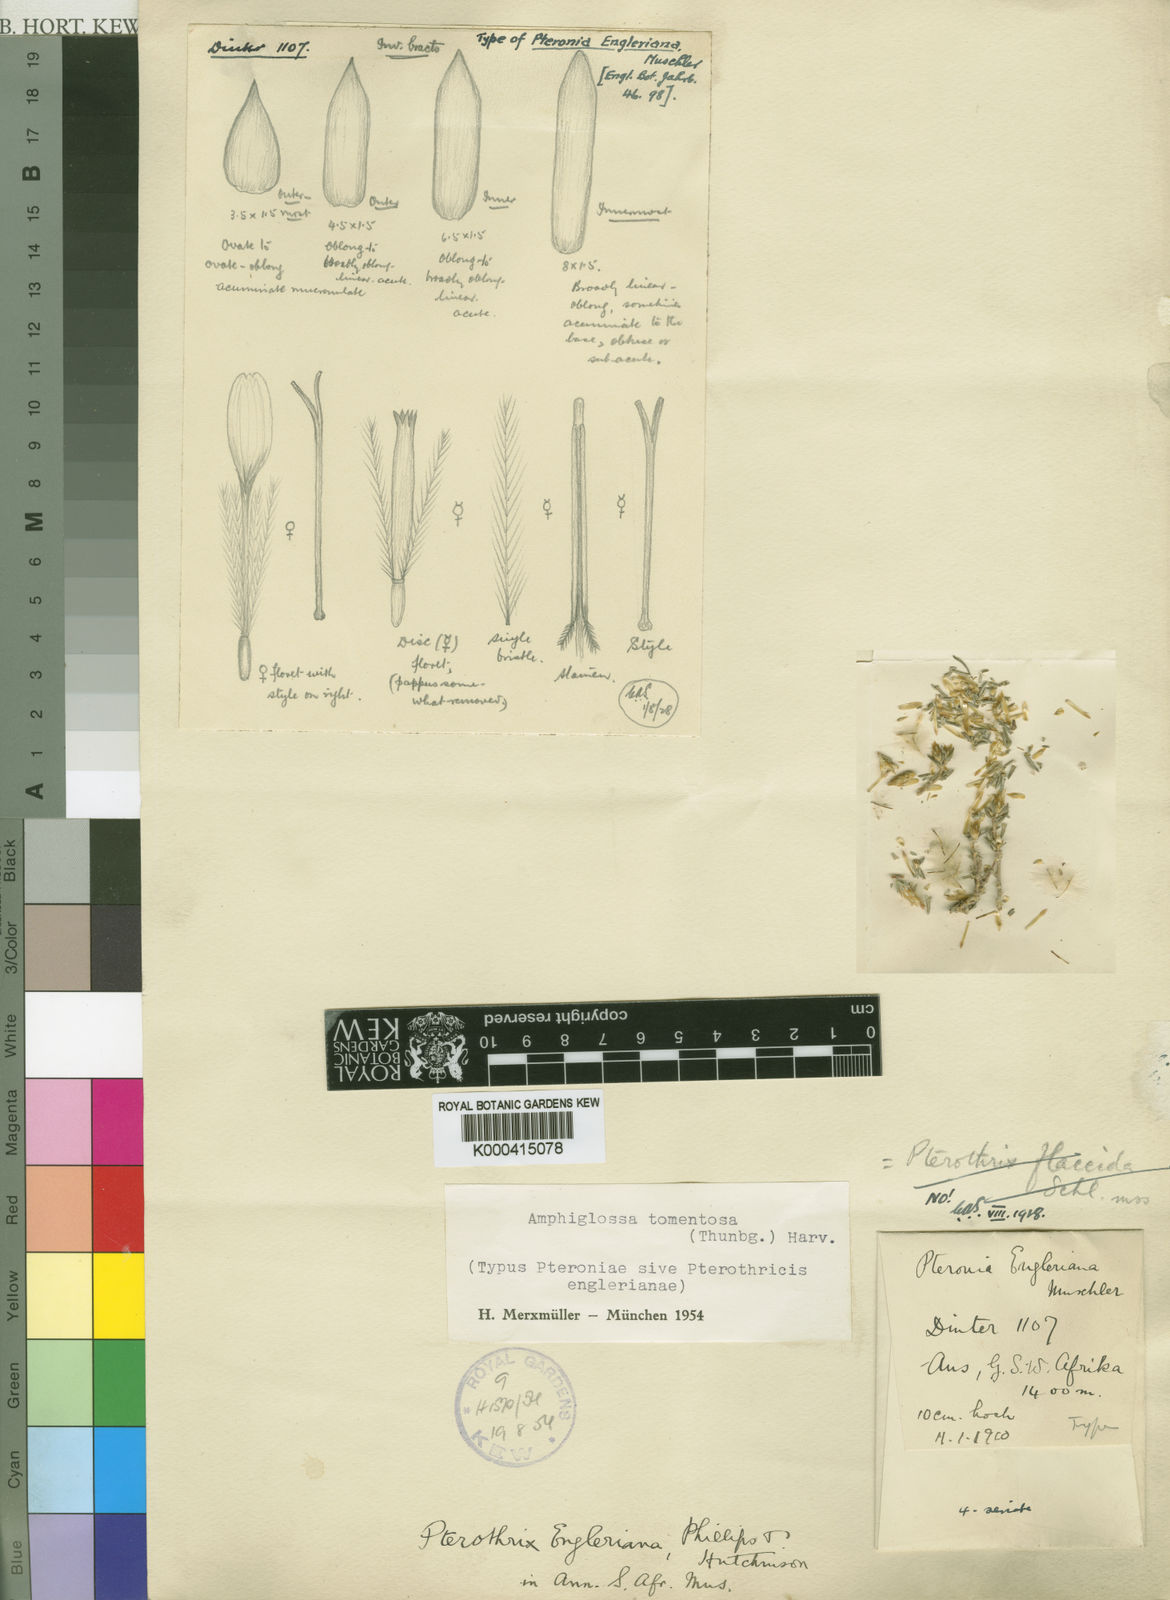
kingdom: Plantae
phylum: Tracheophyta
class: Magnoliopsida
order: Asterales
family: Asteraceae
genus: Amphiglossa
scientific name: Amphiglossa tomentosa
